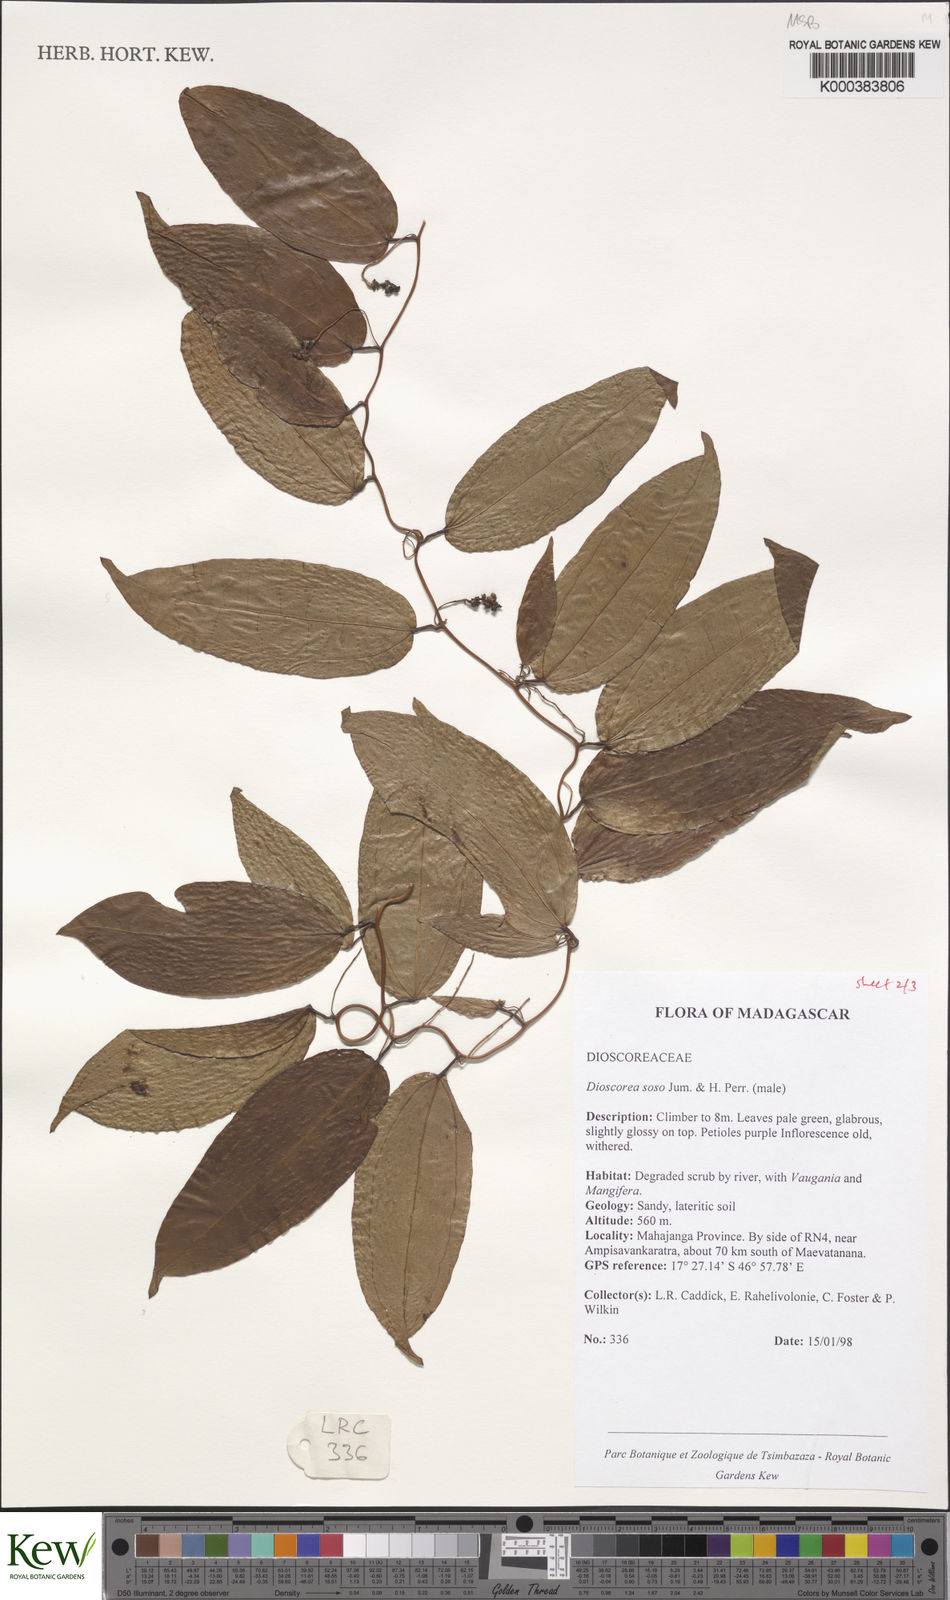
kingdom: Plantae
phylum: Tracheophyta
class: Liliopsida
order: Dioscoreales
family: Dioscoreaceae
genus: Dioscorea
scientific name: Dioscorea
